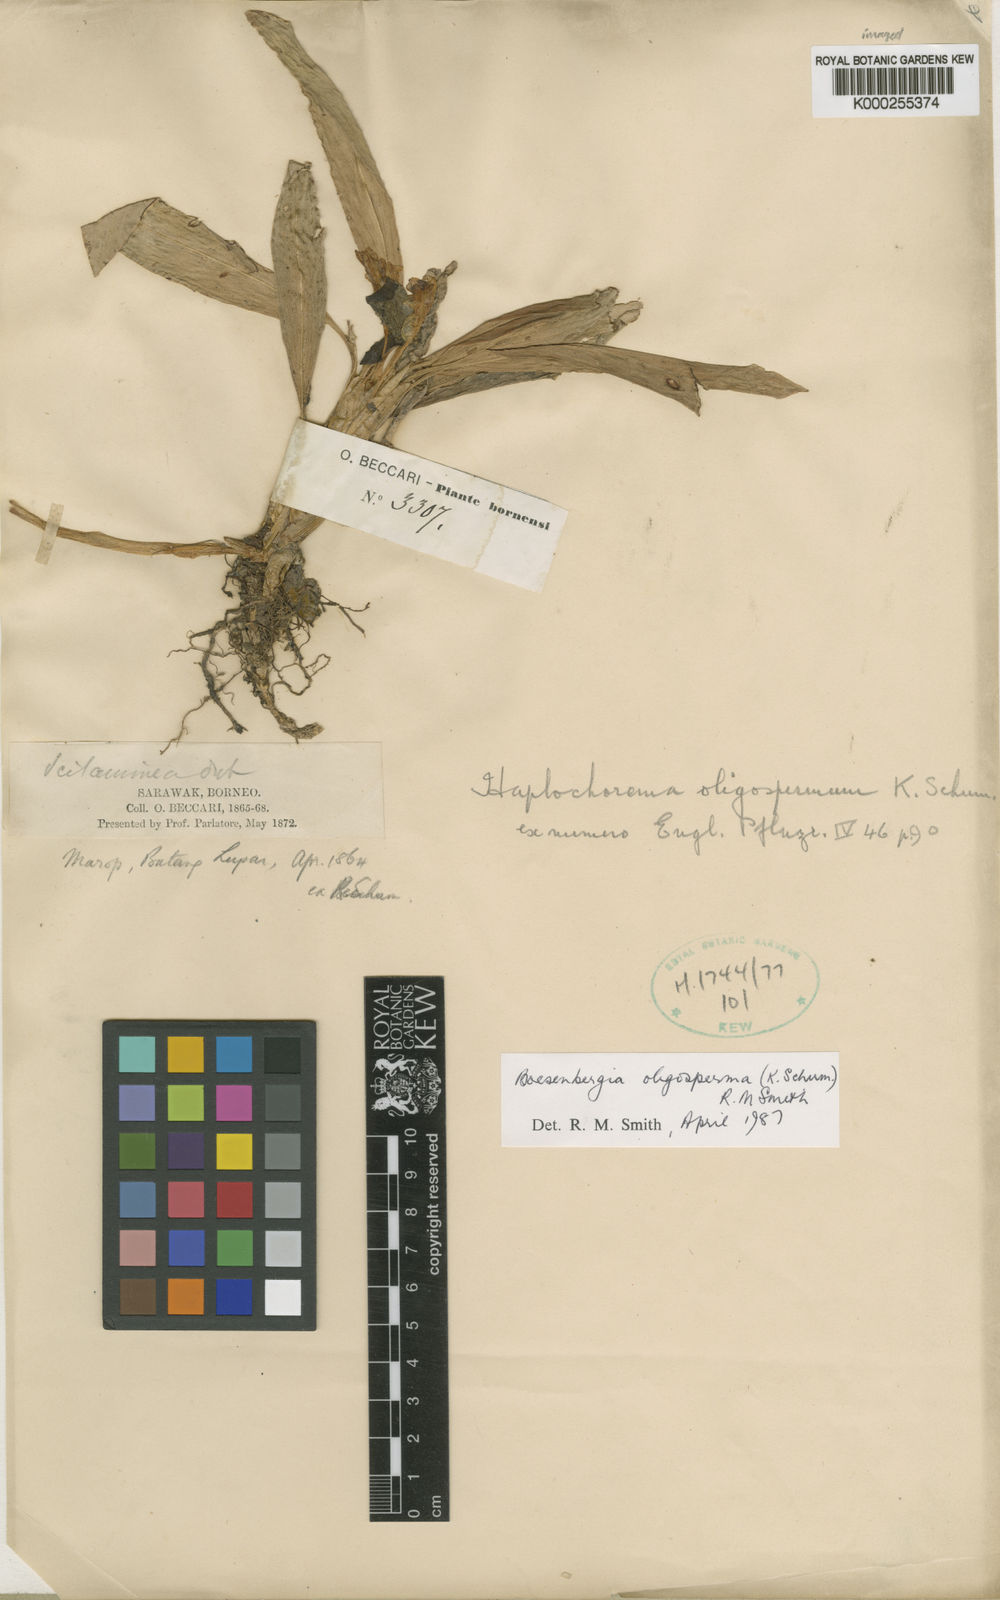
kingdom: Plantae
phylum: Tracheophyta
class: Liliopsida
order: Zingiberales
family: Zingiberaceae
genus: Boesenbergia
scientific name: Boesenbergia oligosperma
